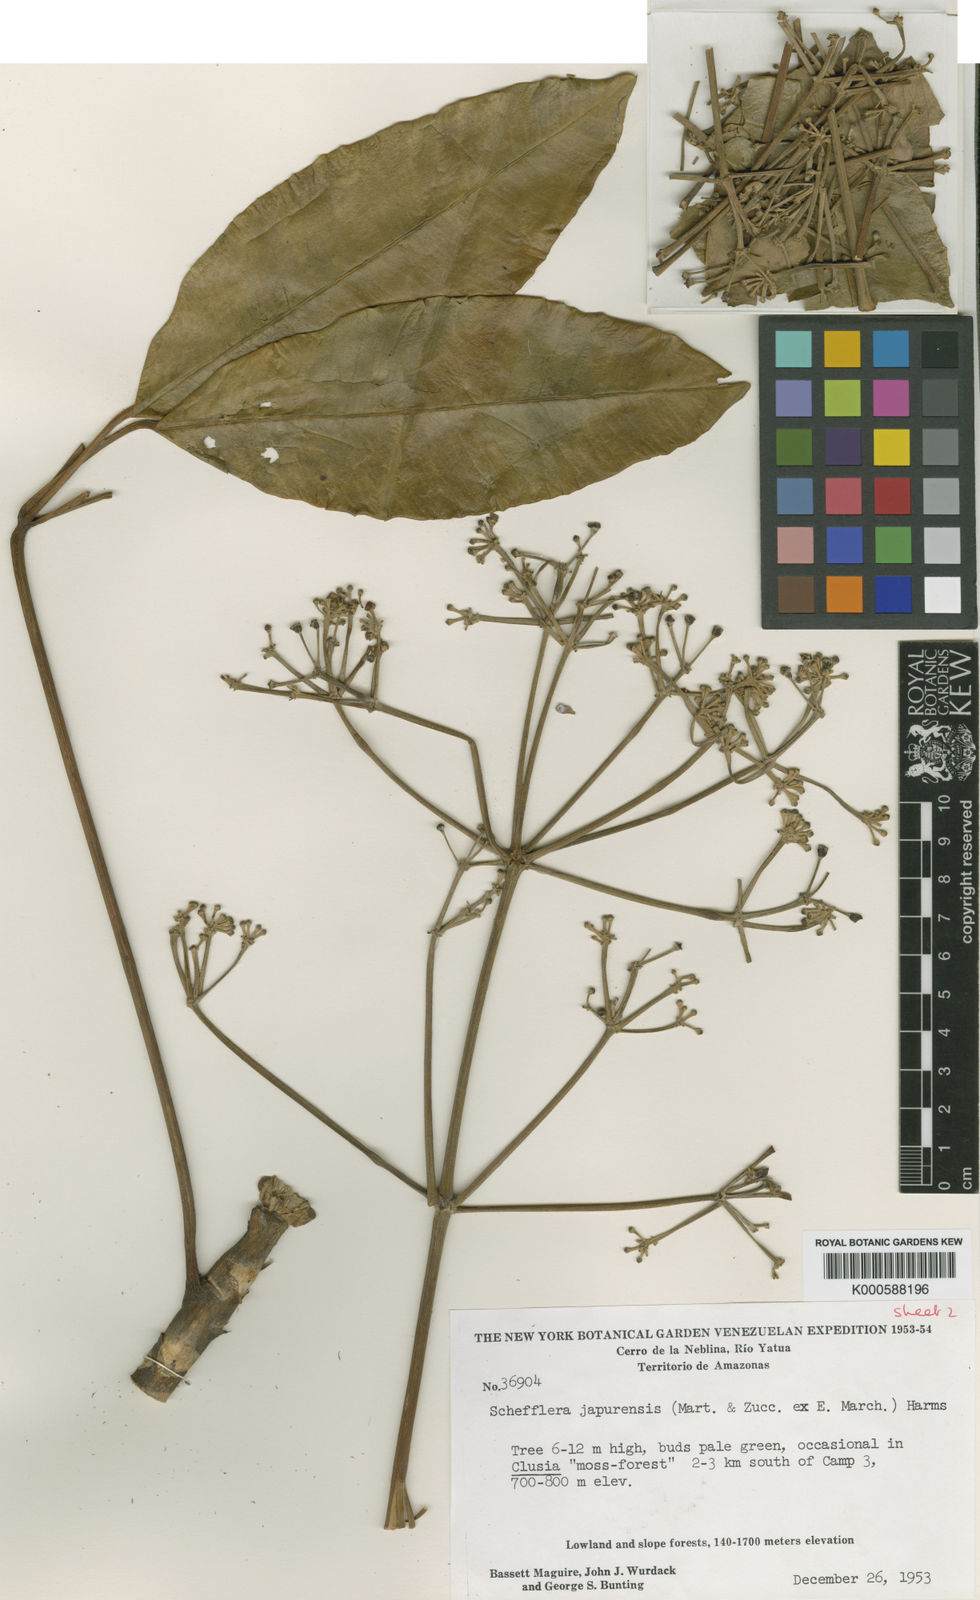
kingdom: Plantae
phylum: Tracheophyta
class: Magnoliopsida
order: Apiales
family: Araliaceae
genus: Crepinella
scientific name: Crepinella
